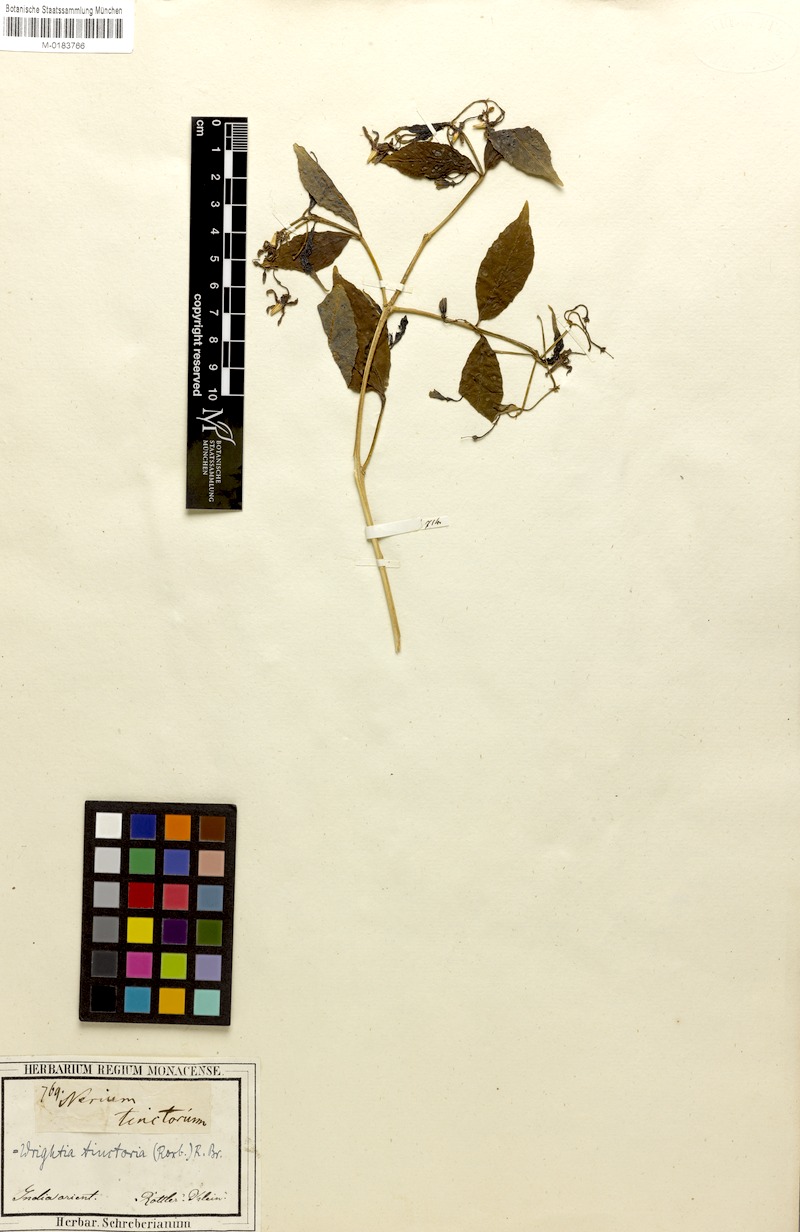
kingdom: Plantae
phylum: Tracheophyta
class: Magnoliopsida
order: Gentianales
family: Apocynaceae
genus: Wrightia
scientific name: Wrightia tinctoria
